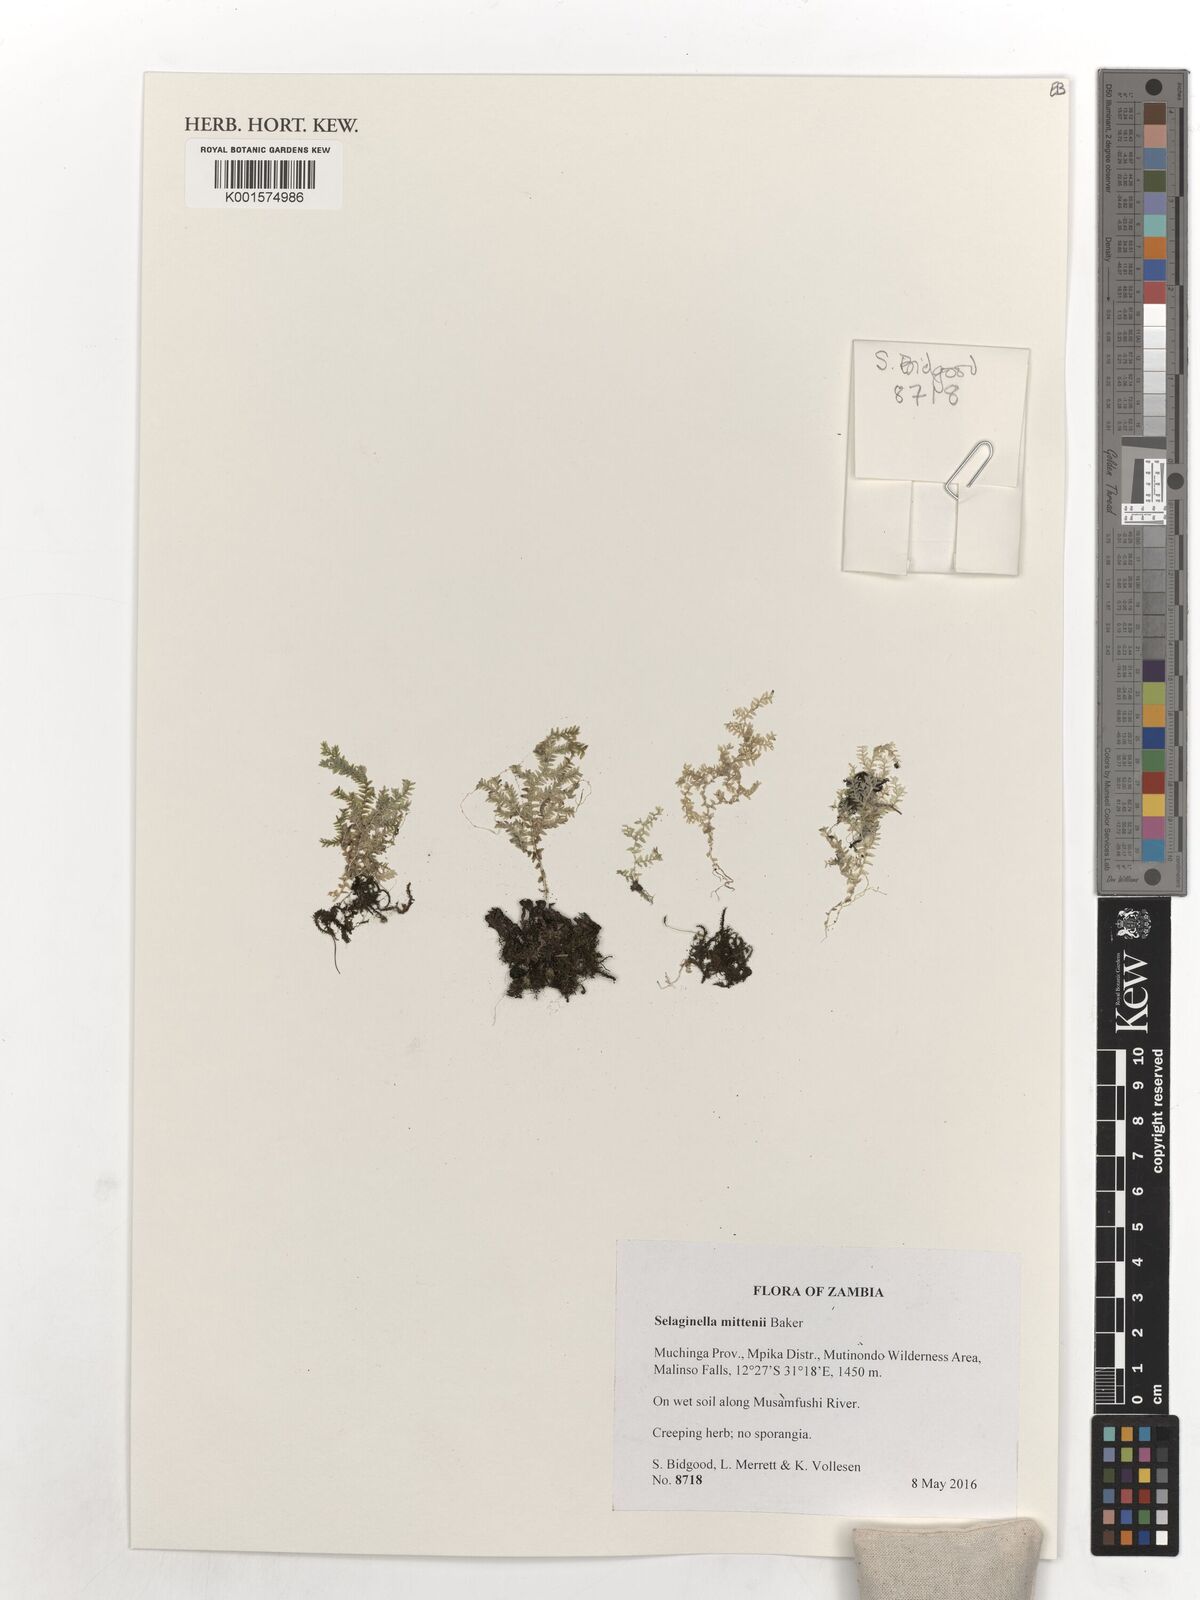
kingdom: Plantae
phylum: Tracheophyta
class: Lycopodiopsida
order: Selaginellales
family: Selaginellaceae
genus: Selaginella
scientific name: Selaginella mittenii
